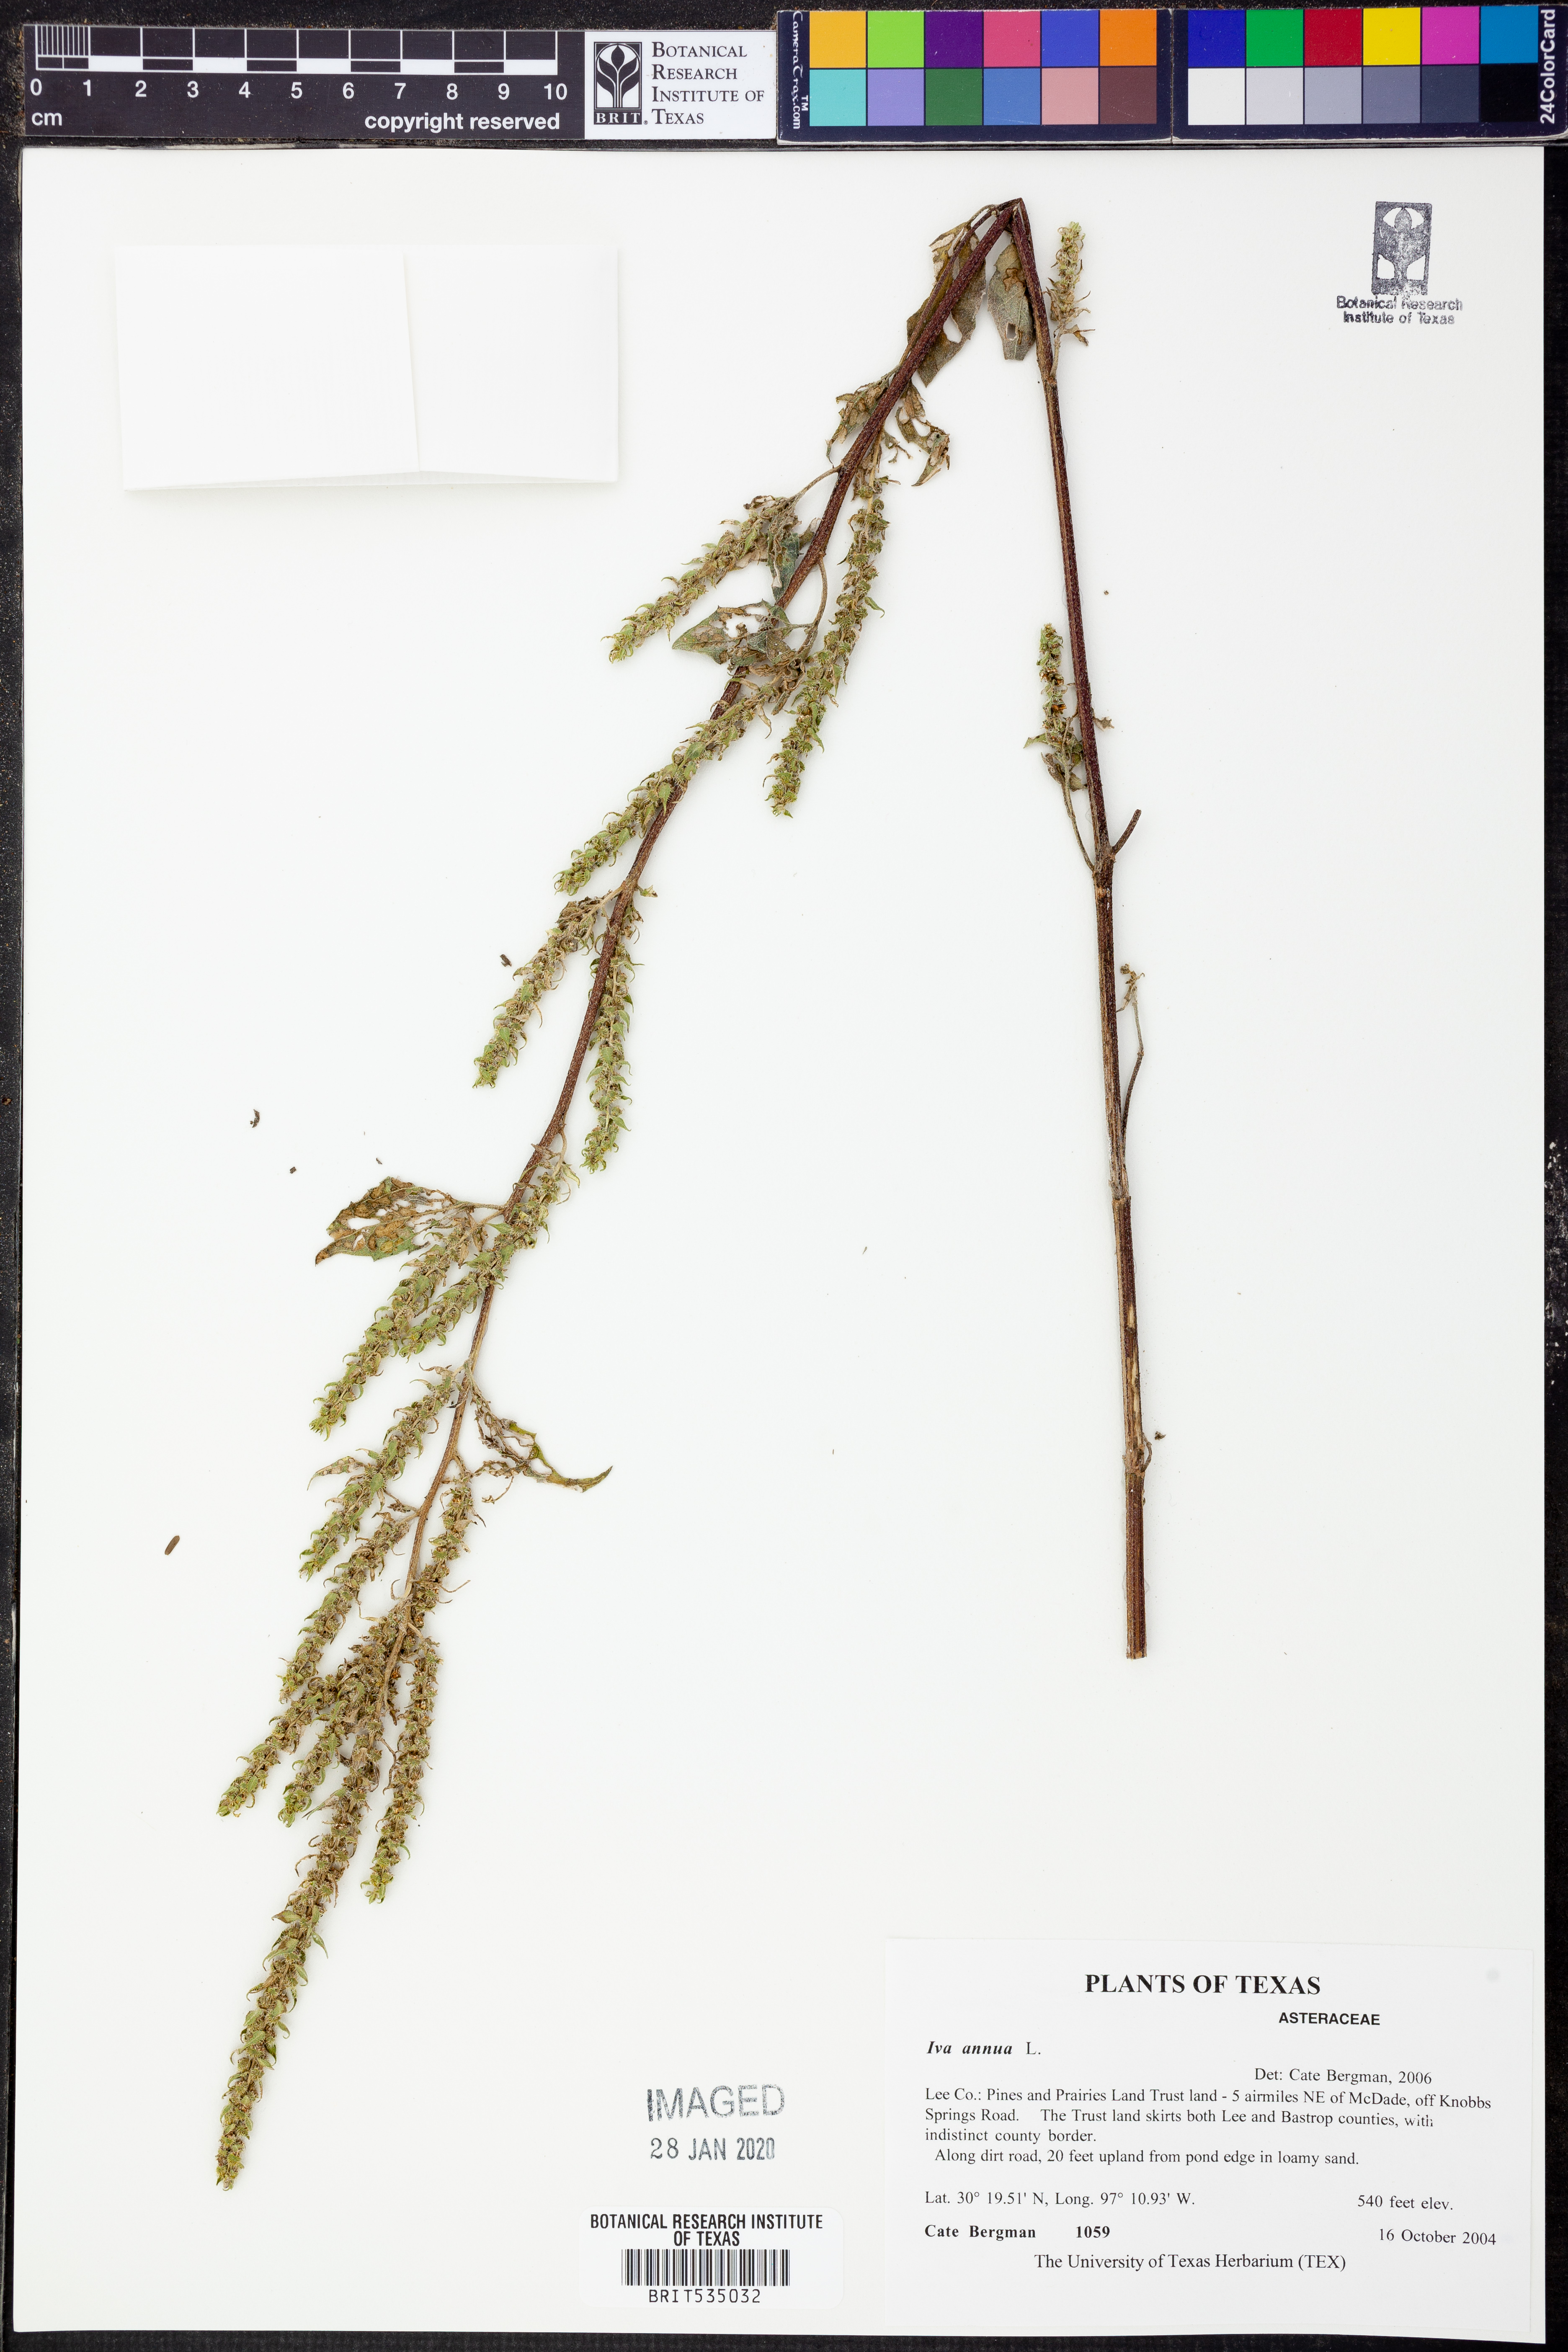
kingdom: Plantae
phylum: Tracheophyta
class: Magnoliopsida
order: Asterales
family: Asteraceae
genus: Iva
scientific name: Iva annua
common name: Marsh-elder
